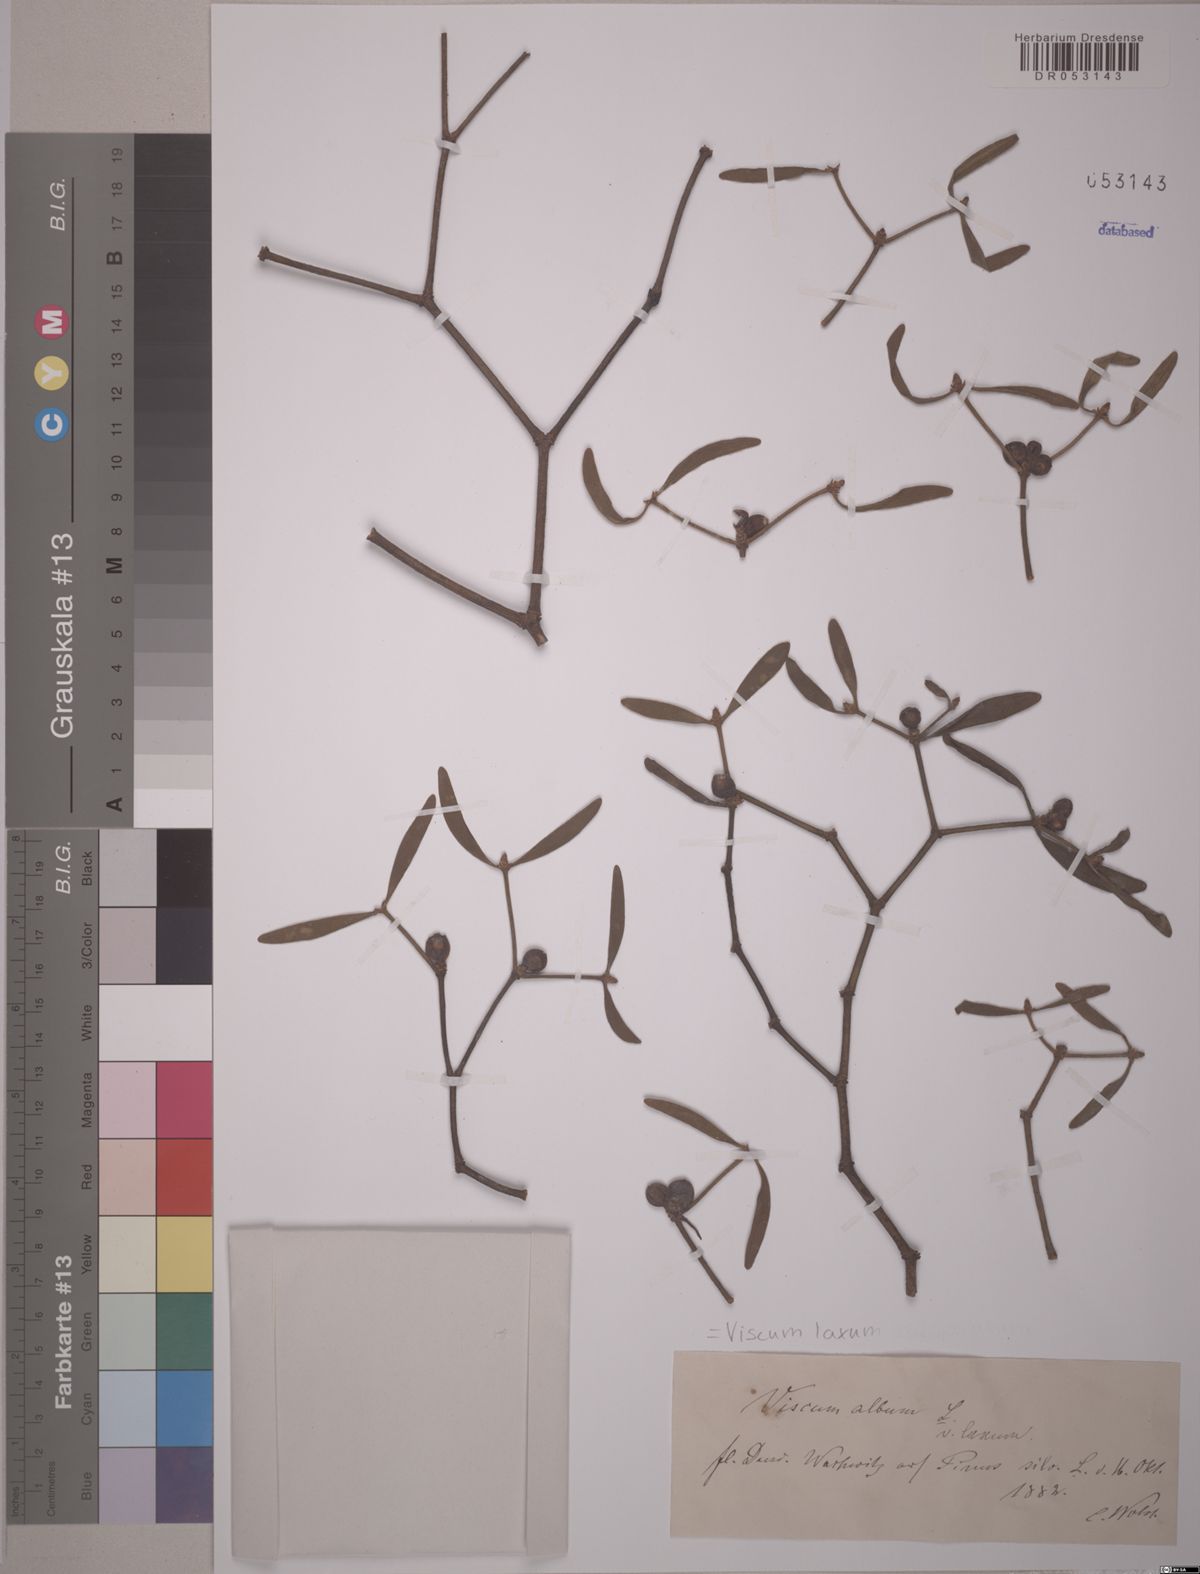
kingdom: Plantae
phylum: Tracheophyta
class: Magnoliopsida
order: Santalales
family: Viscaceae
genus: Viscum
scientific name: Viscum laxum
